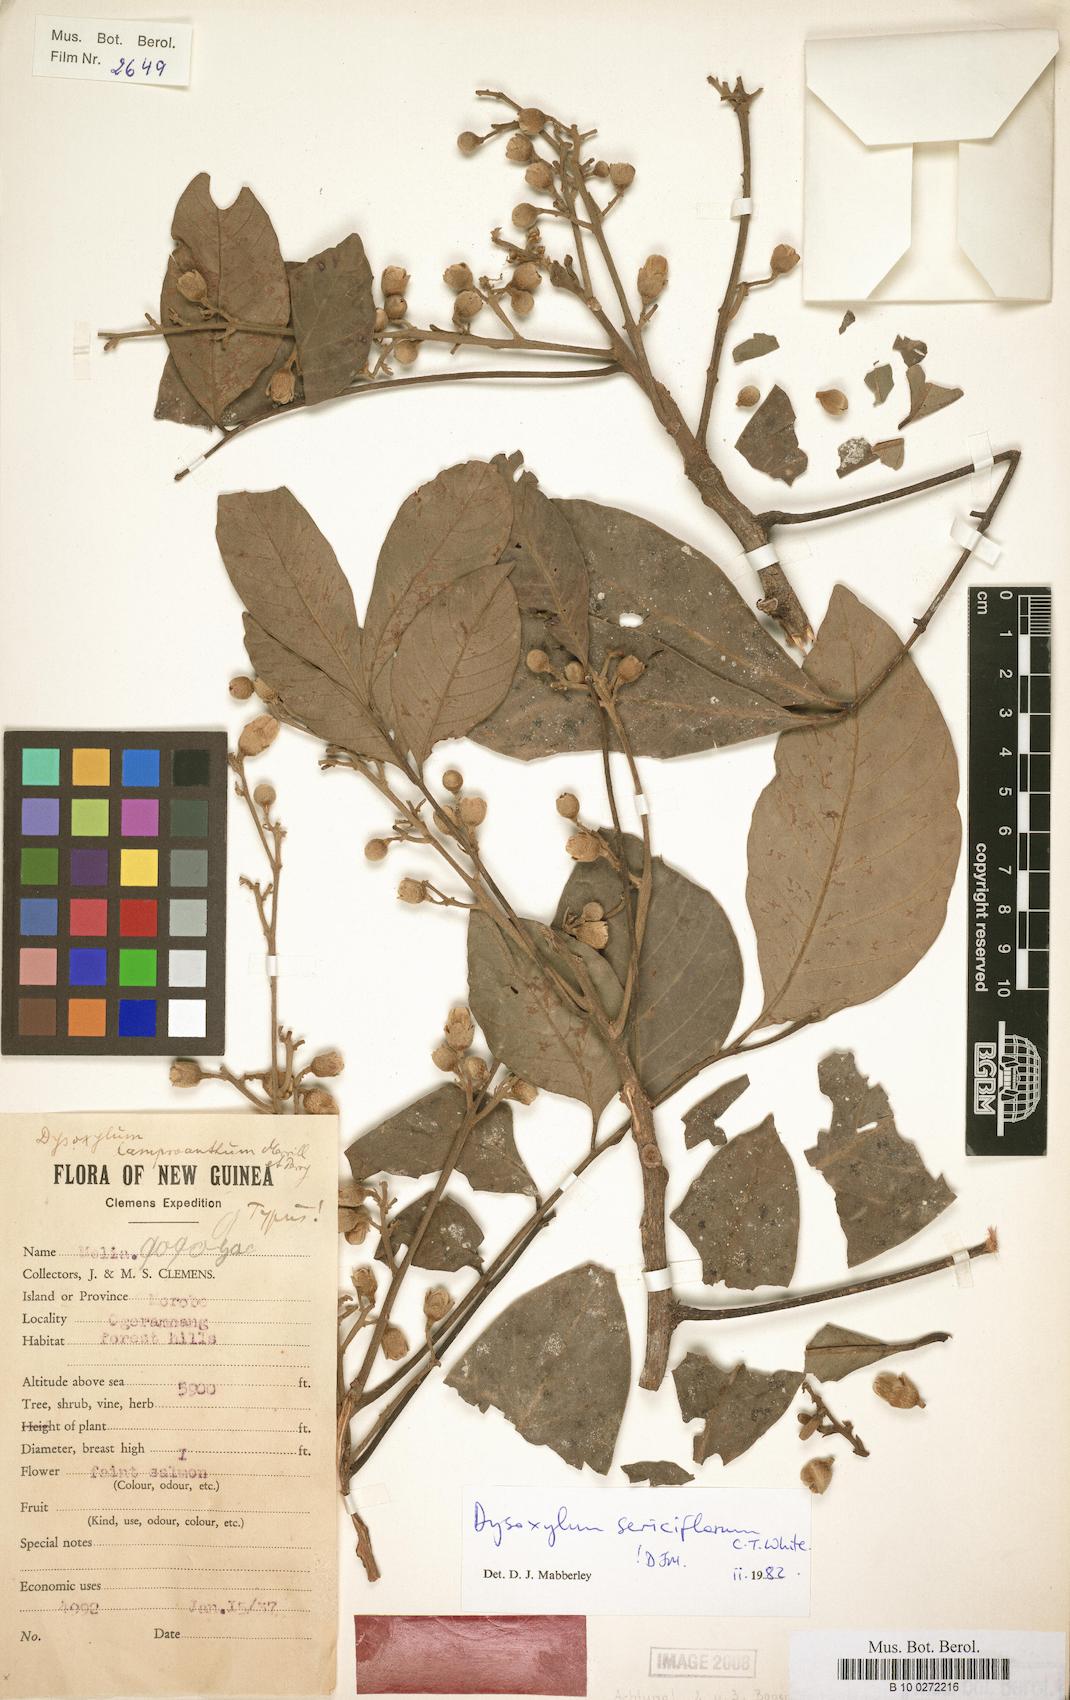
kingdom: Plantae
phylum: Tracheophyta
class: Magnoliopsida
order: Sapindales
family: Meliaceae
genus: Didymocheton
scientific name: Didymocheton setosus
